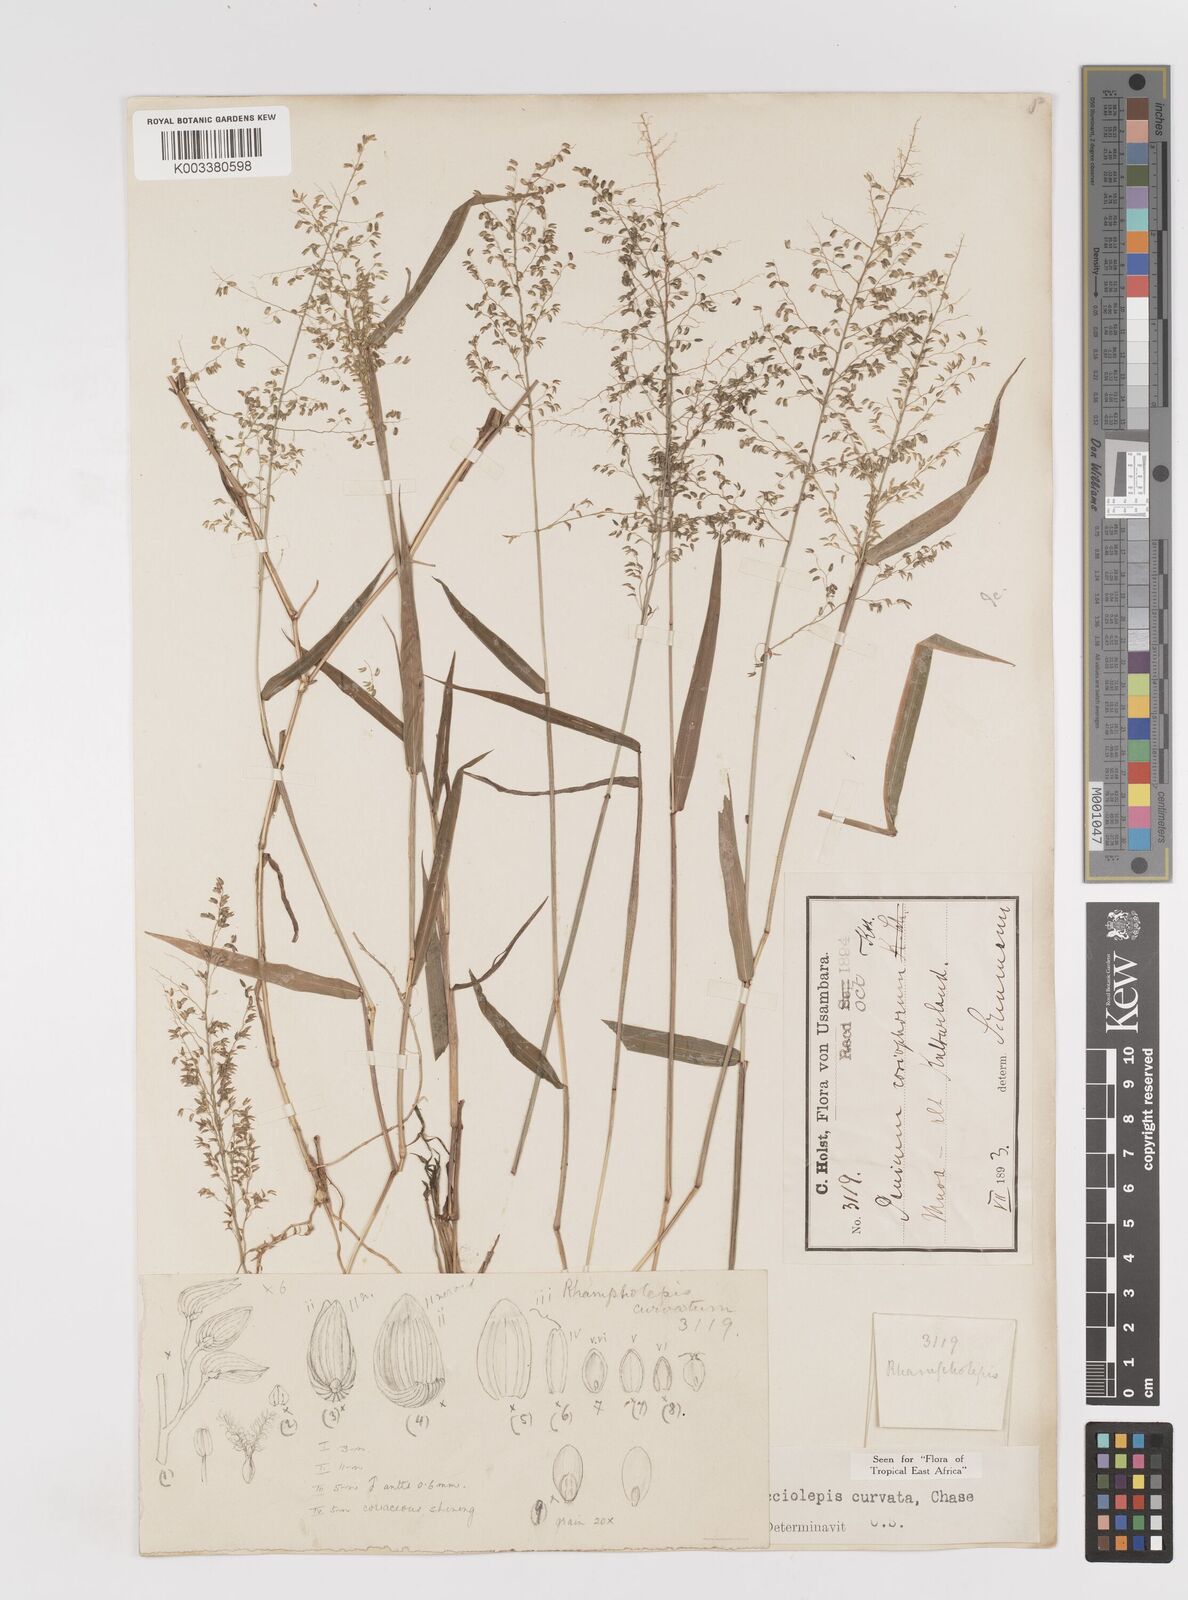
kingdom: Plantae
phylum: Tracheophyta
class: Liliopsida
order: Poales
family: Poaceae
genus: Sacciolepis
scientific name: Sacciolepis curvata
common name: Forest hood grass
